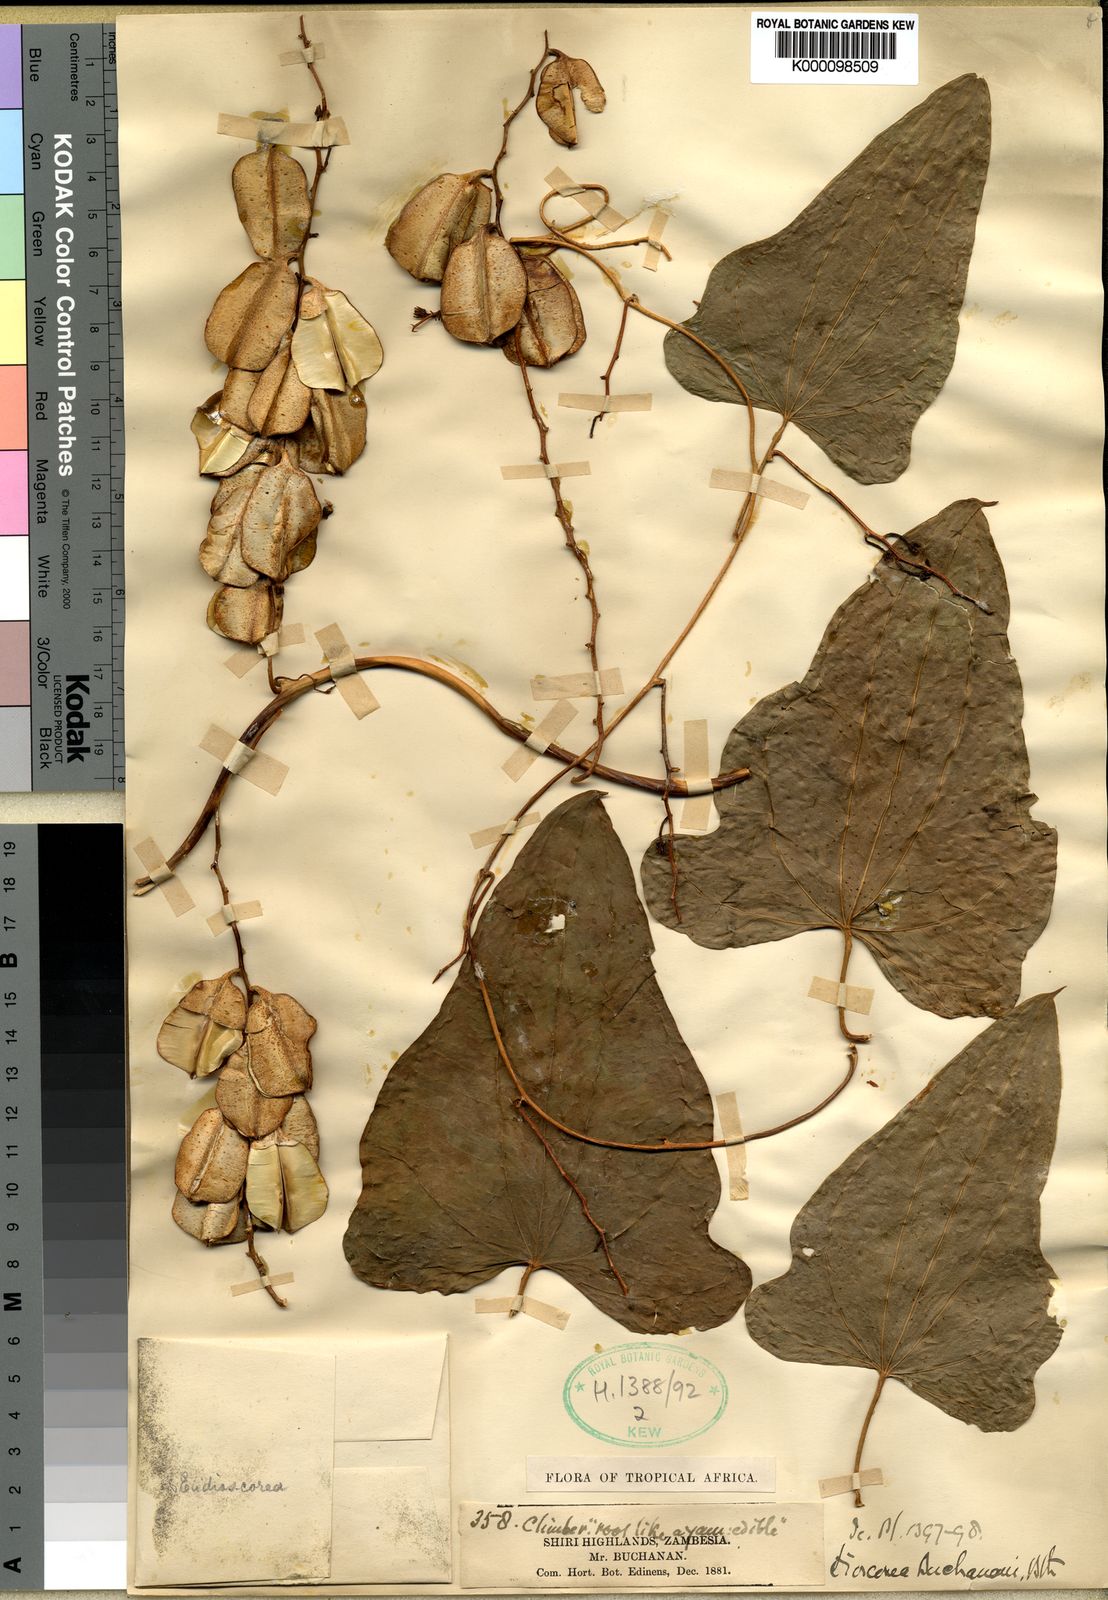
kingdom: Plantae
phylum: Tracheophyta
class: Liliopsida
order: Dioscoreales
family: Dioscoreaceae
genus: Dioscorea
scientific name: Dioscorea buchananii
